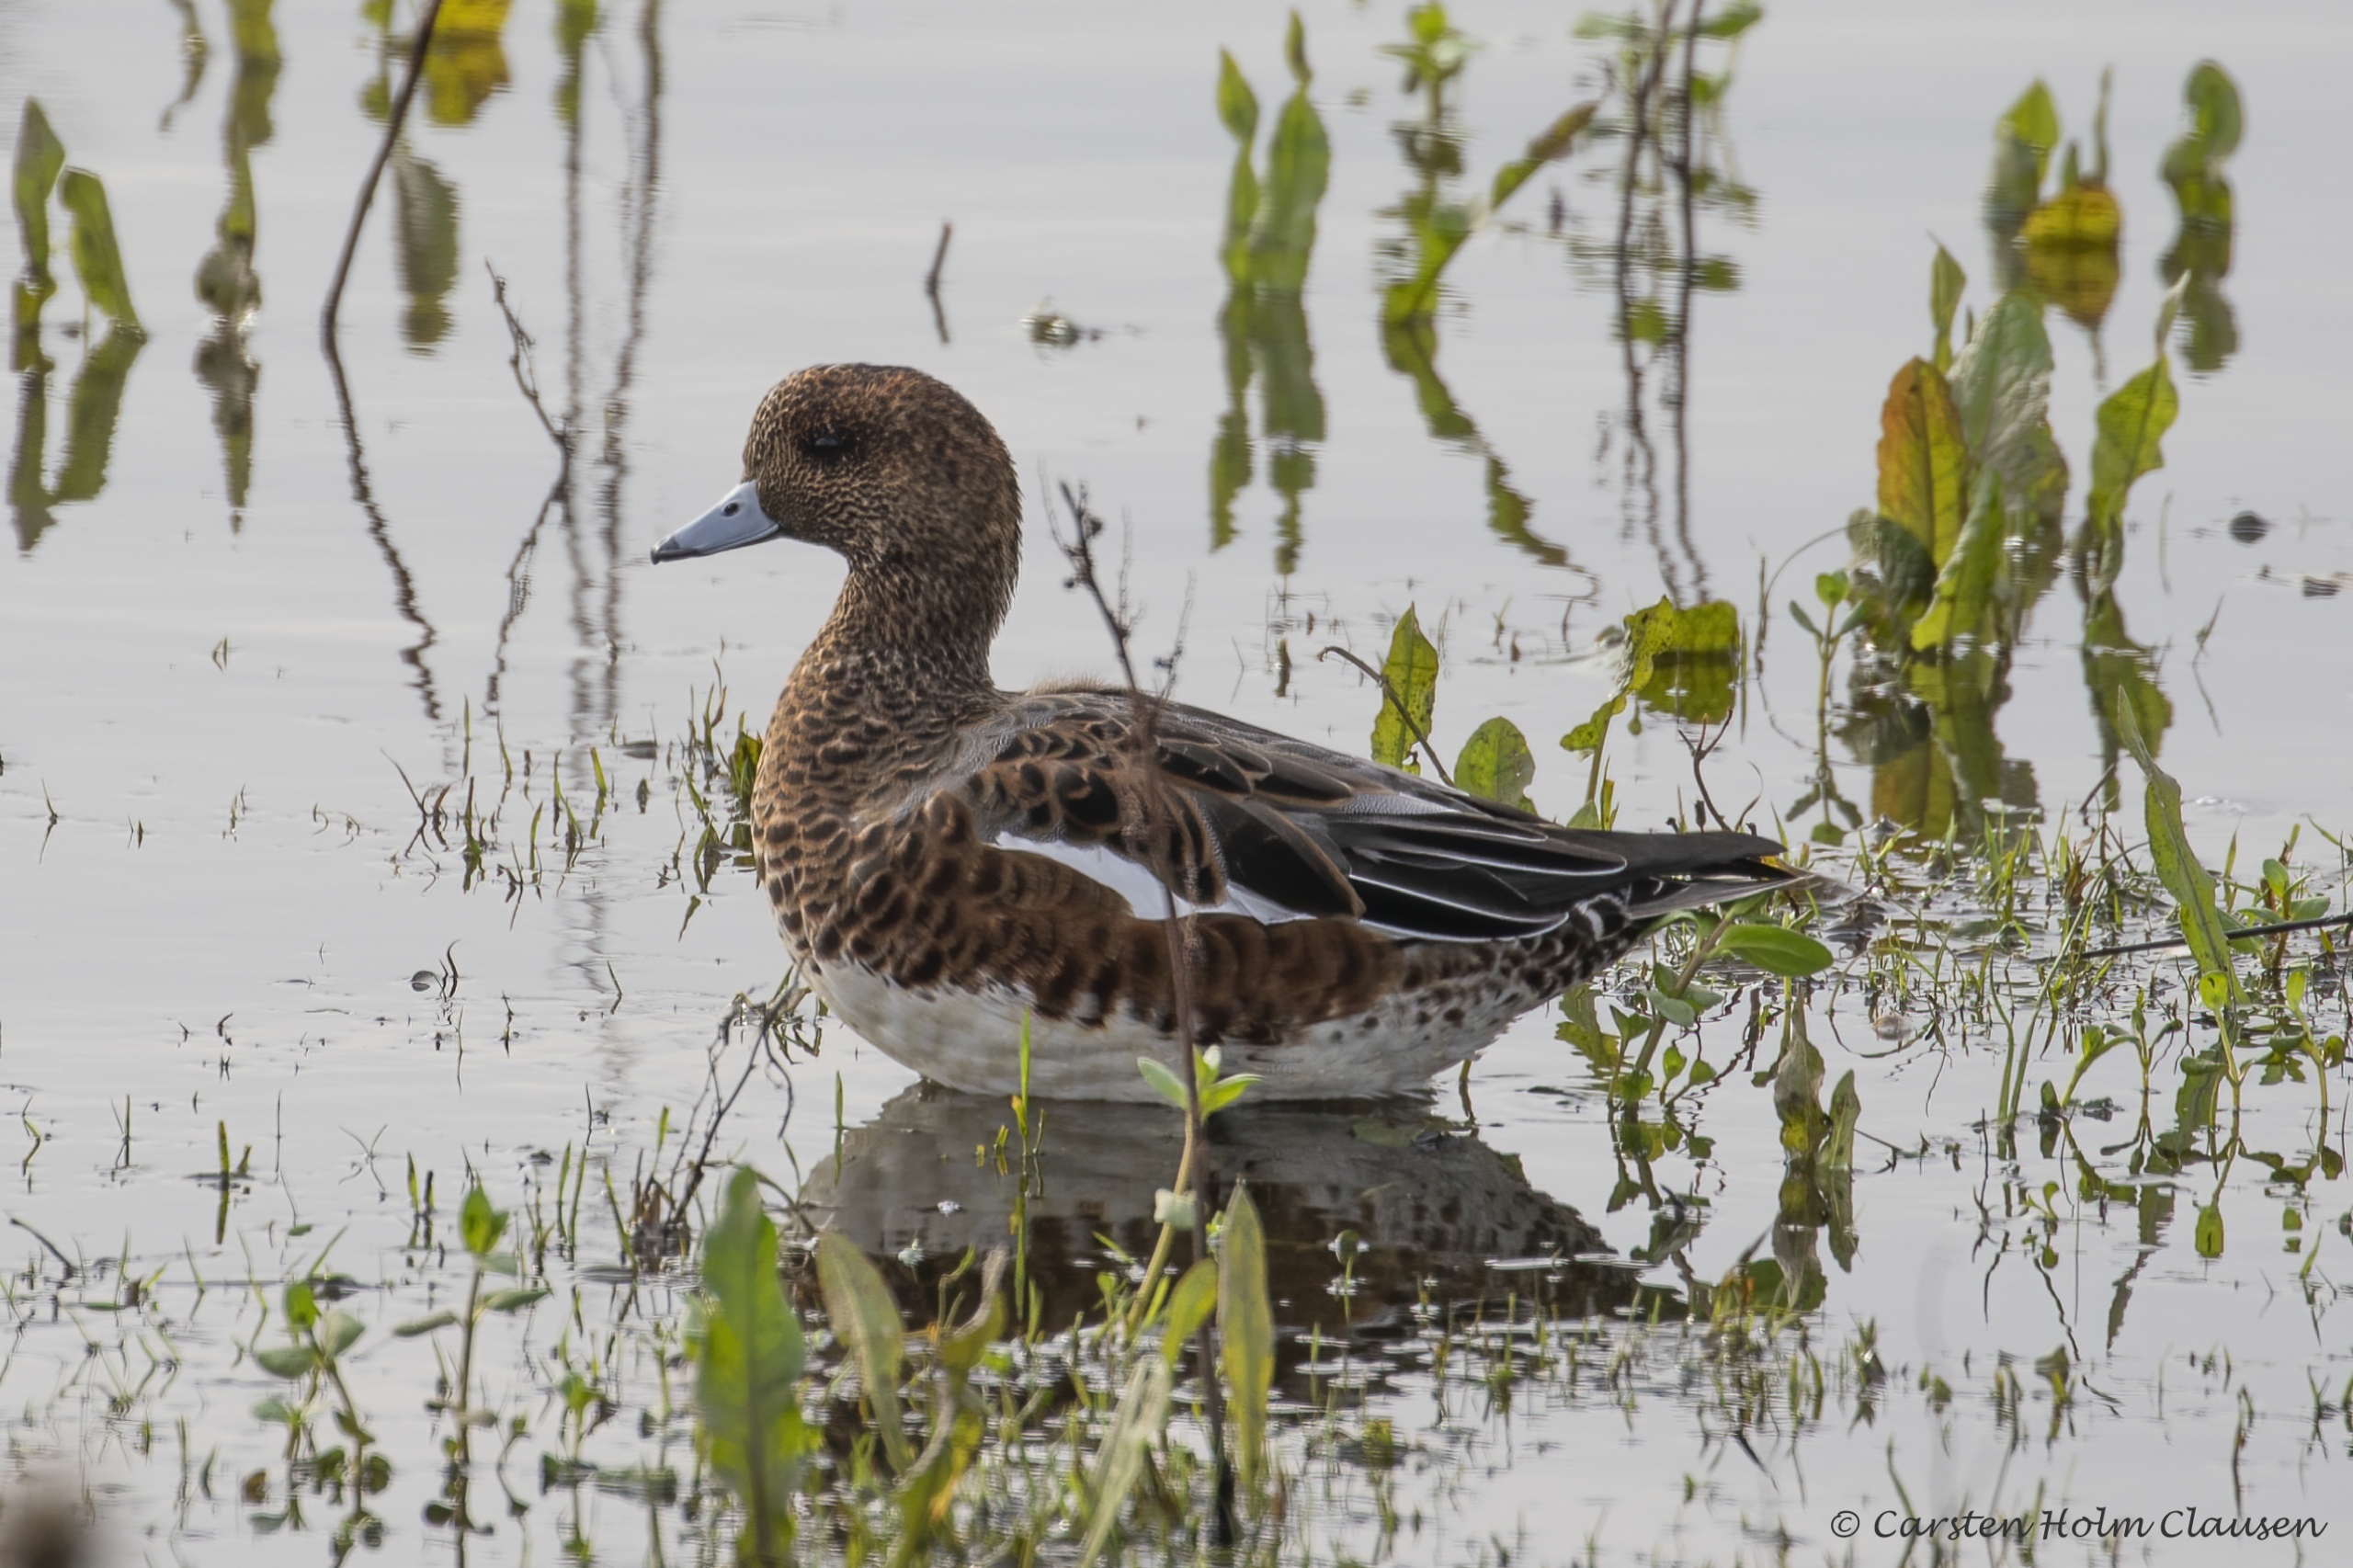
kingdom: Animalia
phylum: Chordata
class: Aves
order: Anseriformes
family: Anatidae
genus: Mareca
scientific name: Mareca penelope
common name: Pibeand
